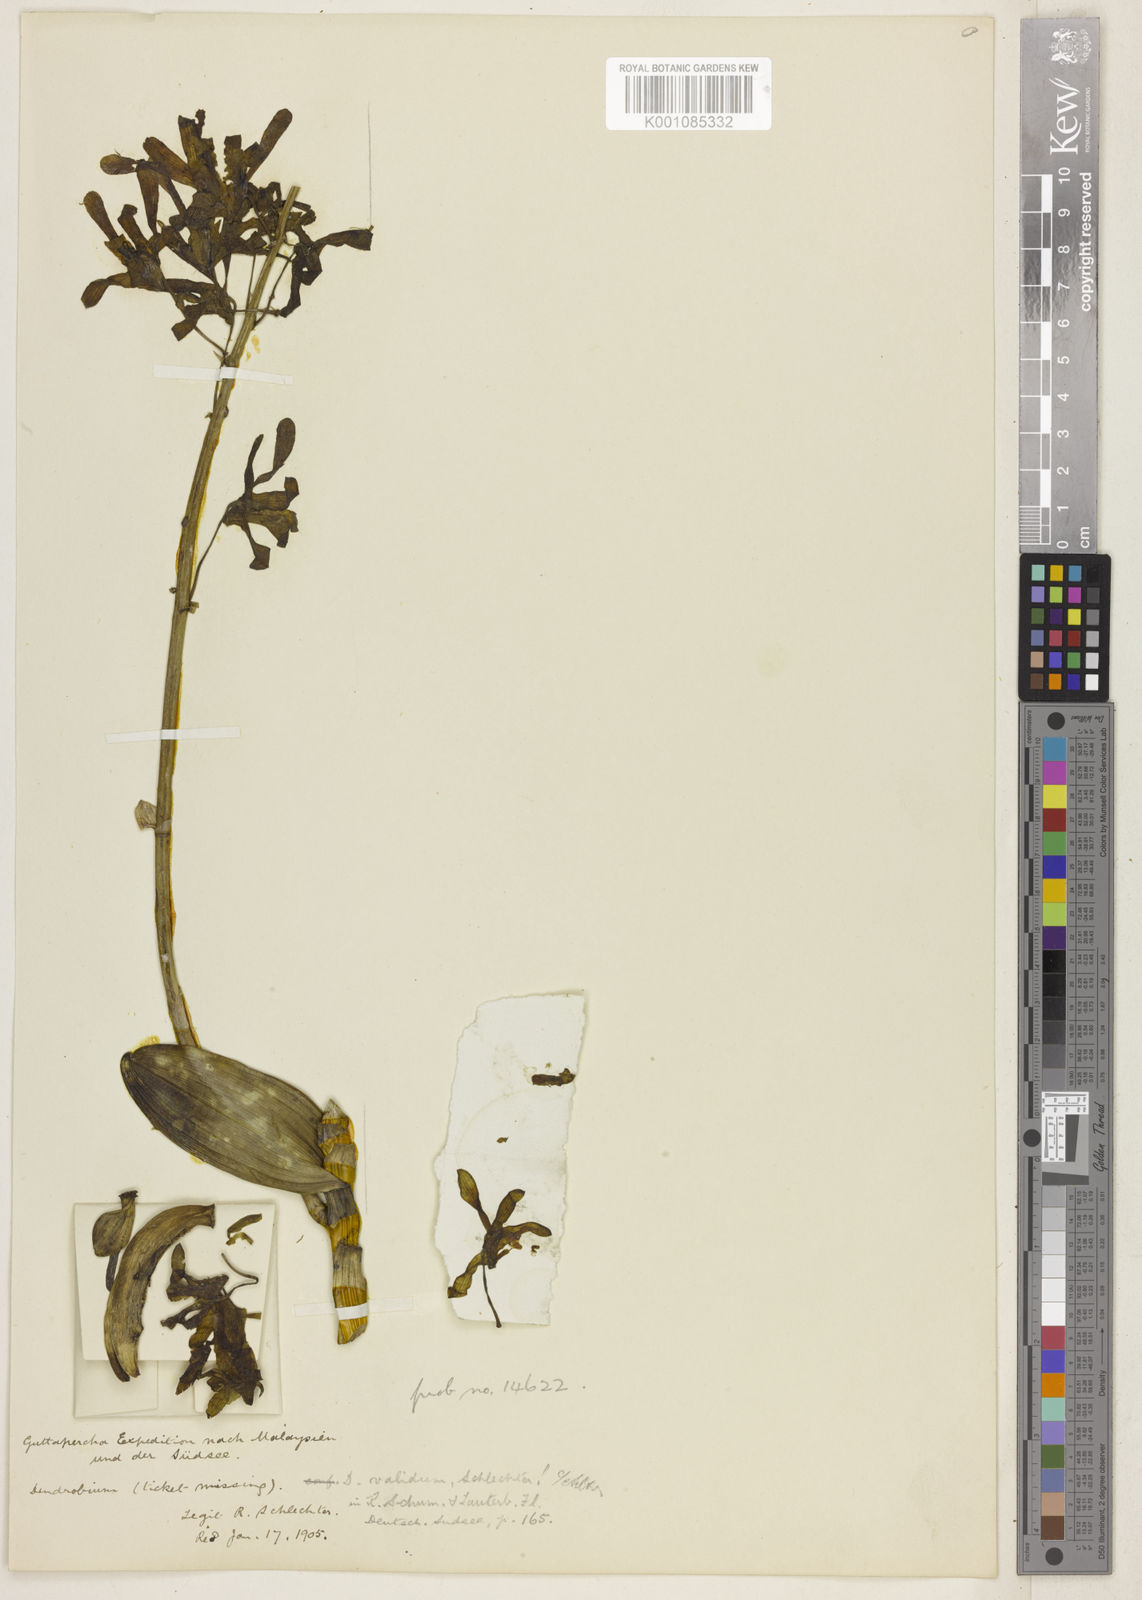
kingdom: Plantae
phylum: Tracheophyta
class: Liliopsida
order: Asparagales
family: Orchidaceae
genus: Dendrobium
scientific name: Dendrobium sylvanum
